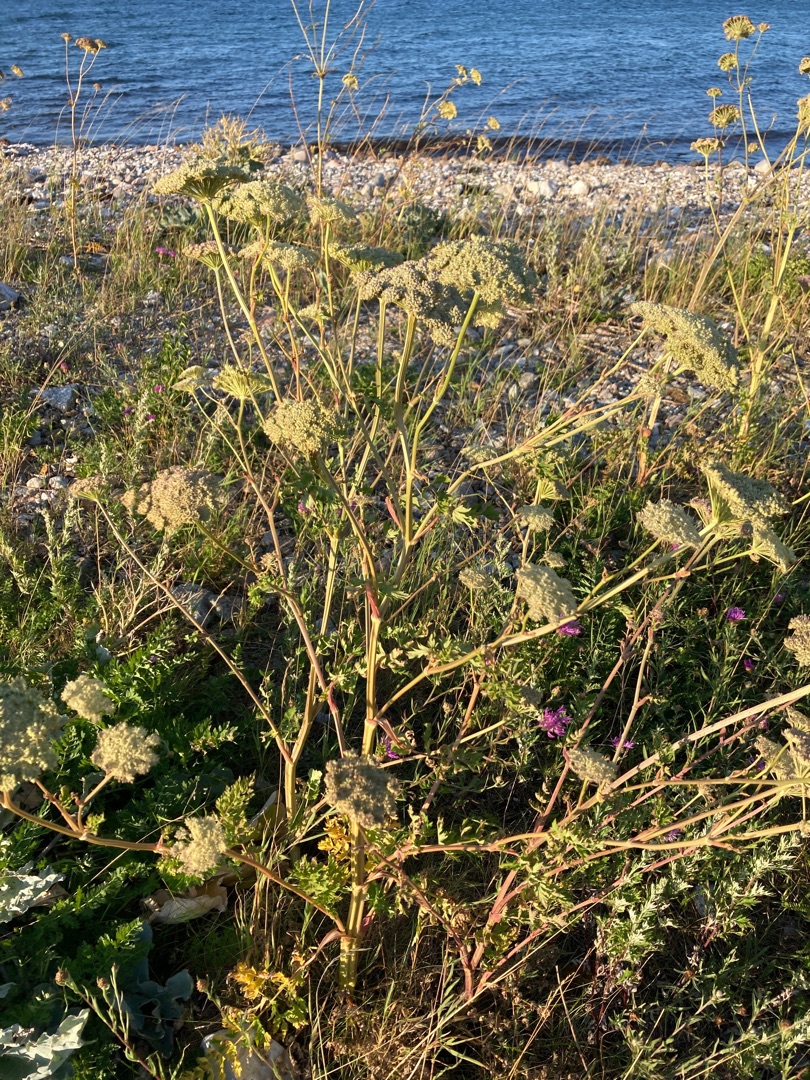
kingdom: Plantae
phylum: Tracheophyta
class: Magnoliopsida
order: Apiales
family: Apiaceae
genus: Seseli
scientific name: Seseli libanotis
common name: Hjorterod
